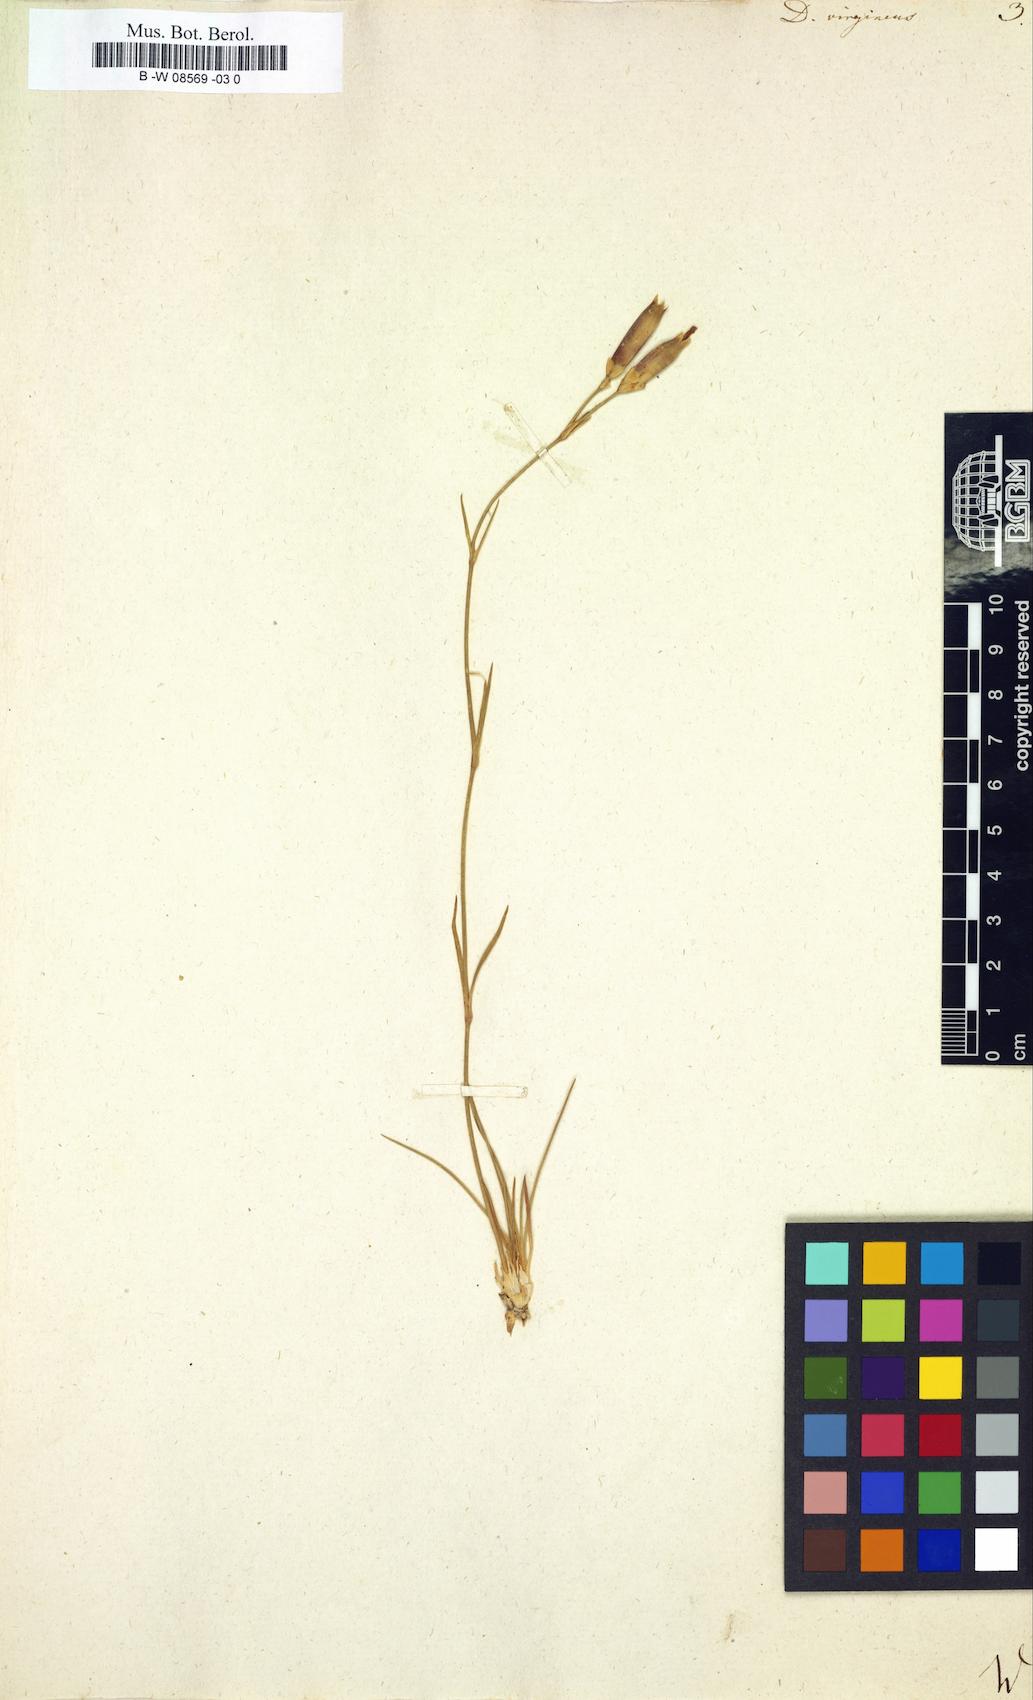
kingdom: Plantae
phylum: Tracheophyta
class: Magnoliopsida
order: Caryophyllales
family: Caryophyllaceae
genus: Dianthus
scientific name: Dianthus virgineus
